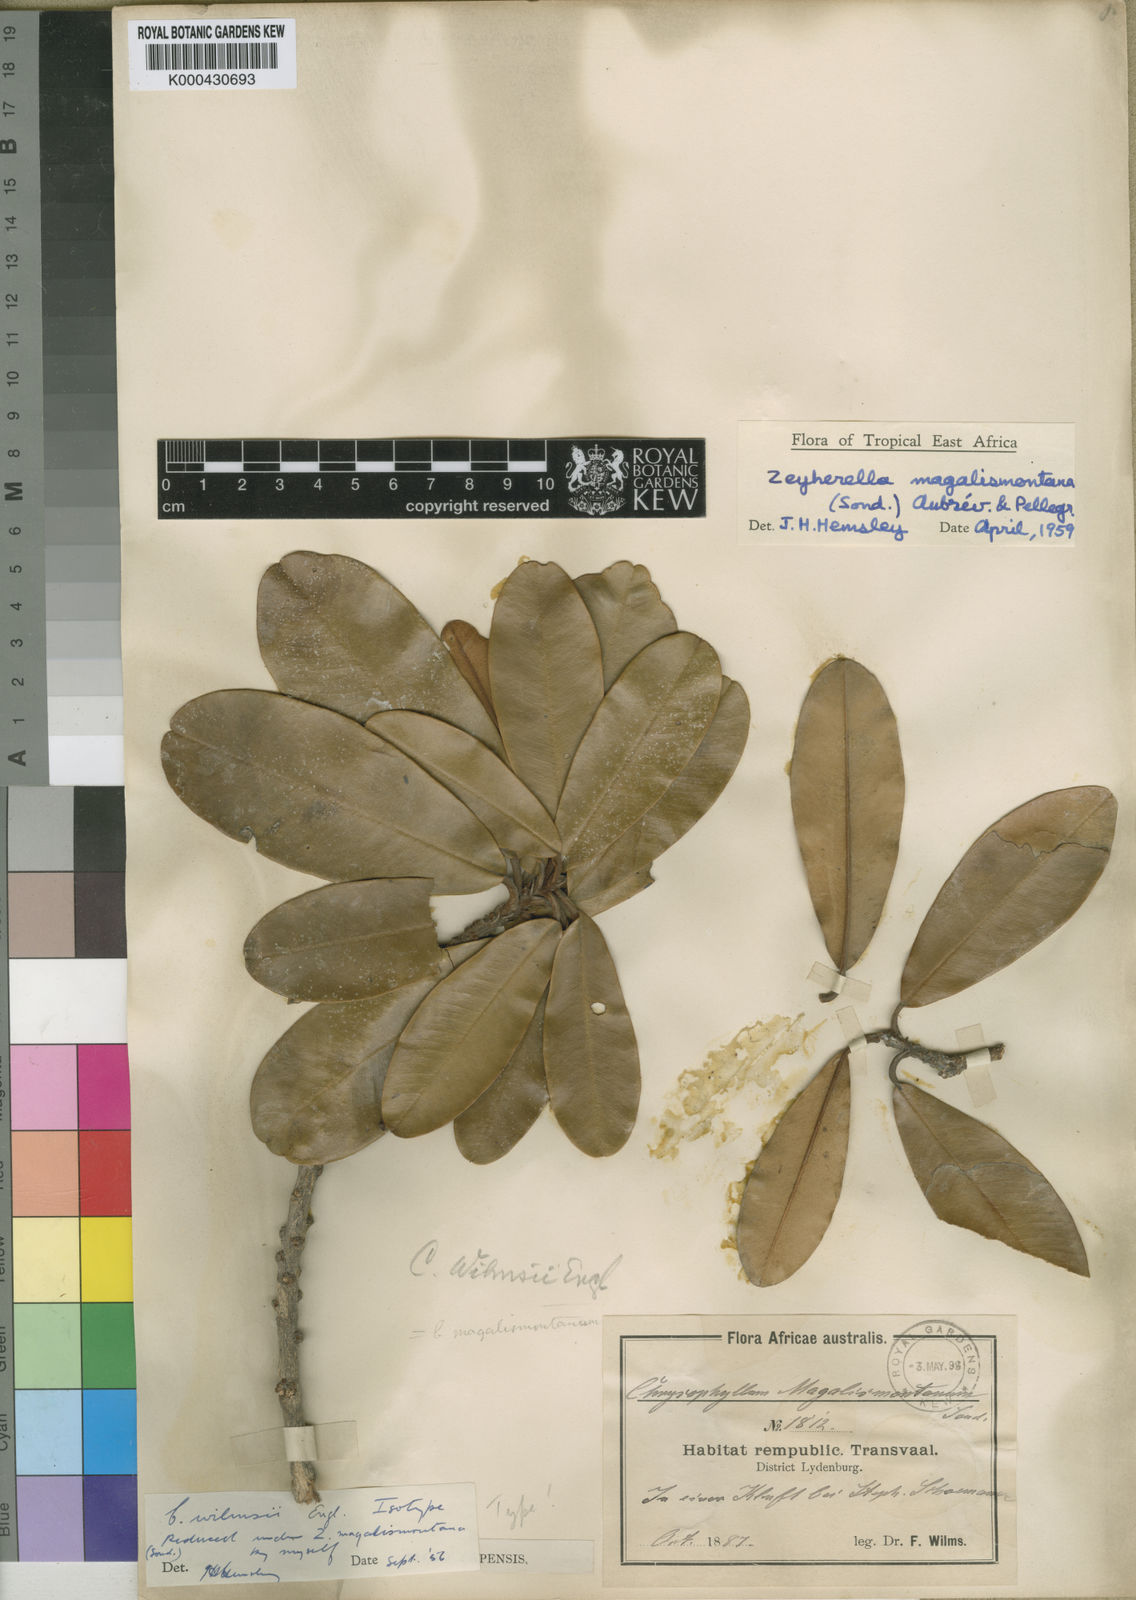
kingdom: Plantae
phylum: Tracheophyta
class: Magnoliopsida
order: Ericales
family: Sapotaceae
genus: Englerophytum
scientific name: Englerophytum magalismontanum
